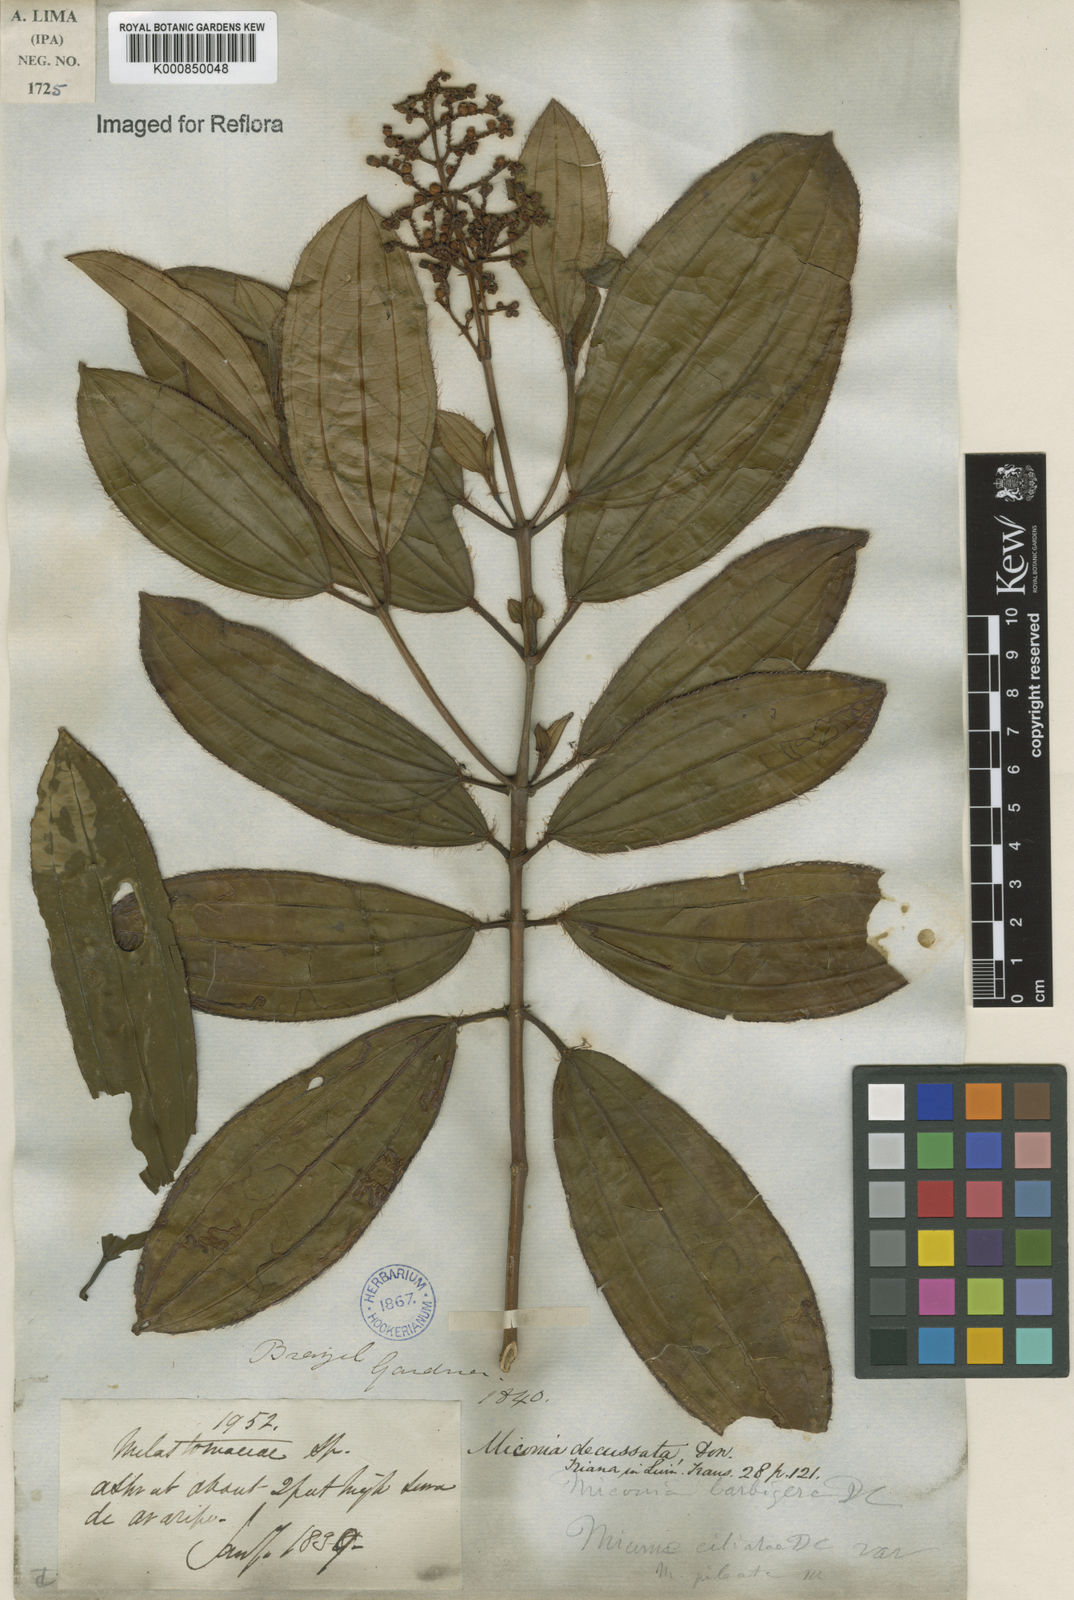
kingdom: Plantae
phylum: Tracheophyta
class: Magnoliopsida
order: Myrtales
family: Melastomataceae
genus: Miconia
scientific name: Miconia ciliata
